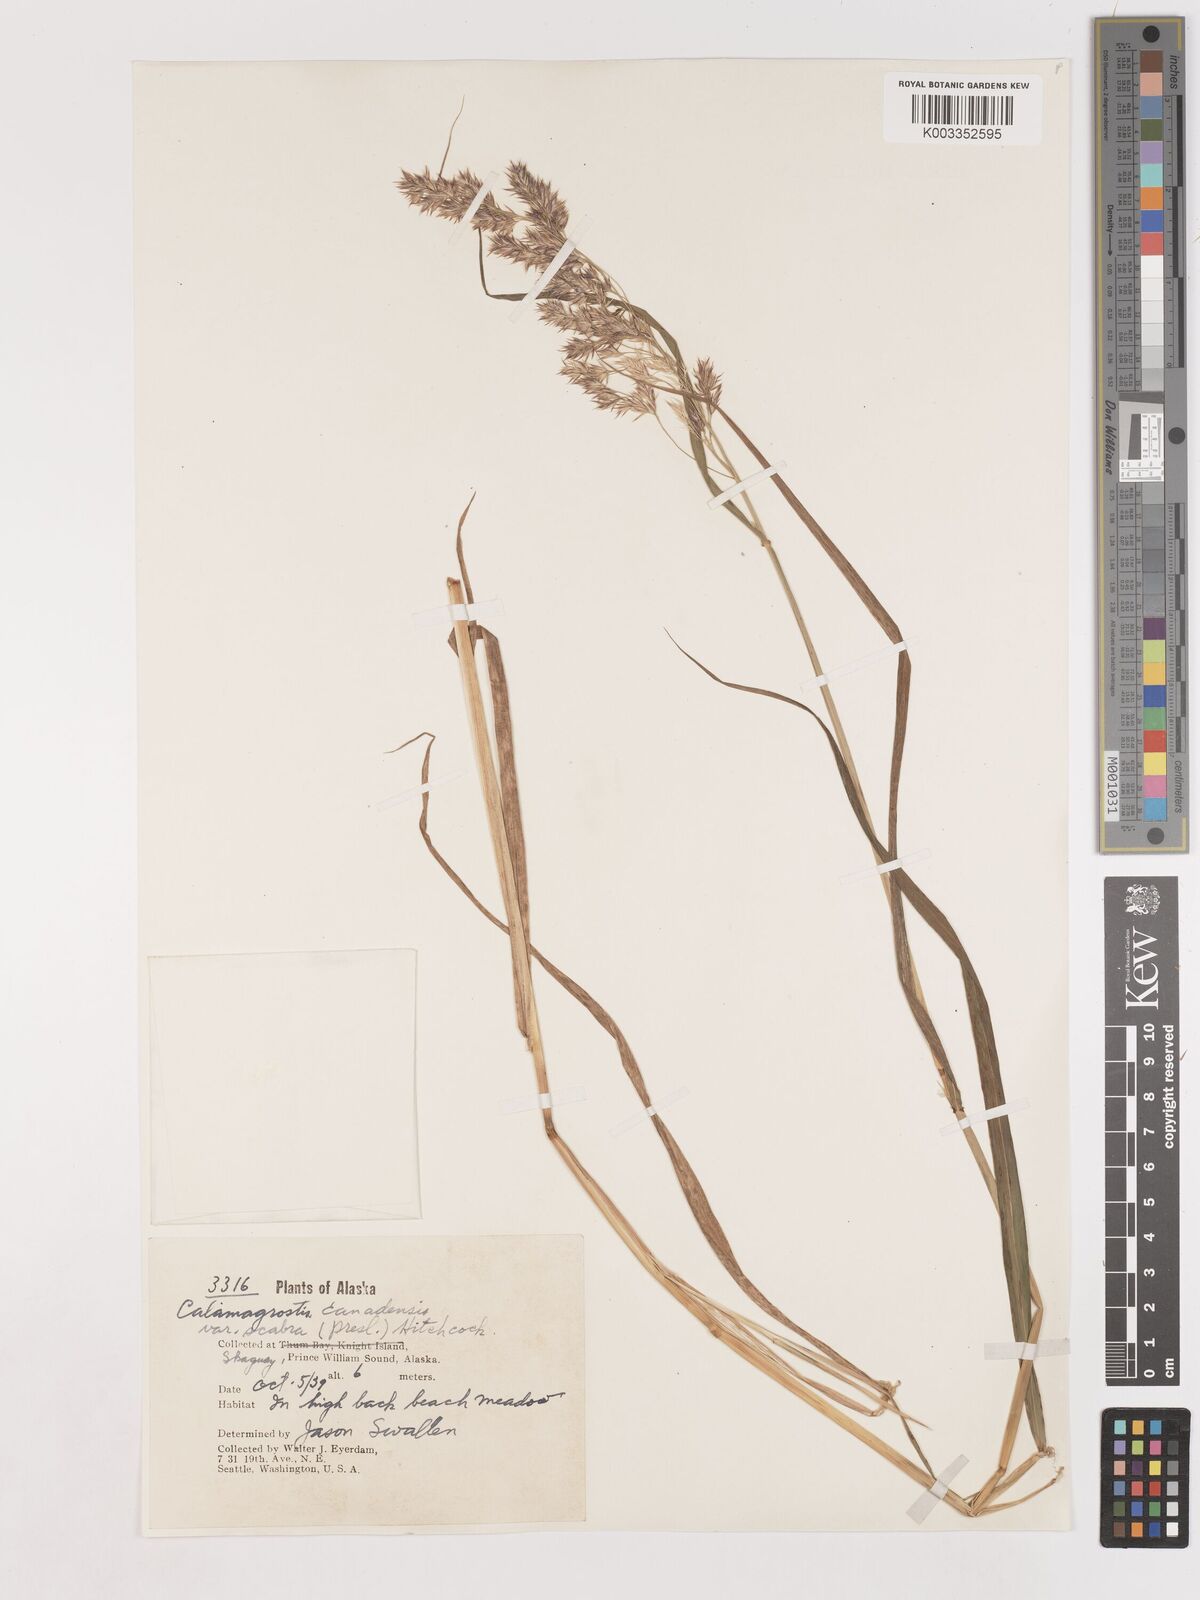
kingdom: Plantae
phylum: Tracheophyta
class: Liliopsida
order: Poales
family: Poaceae
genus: Calamagrostis
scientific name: Calamagrostis canadensis
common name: Canada bluejoint
